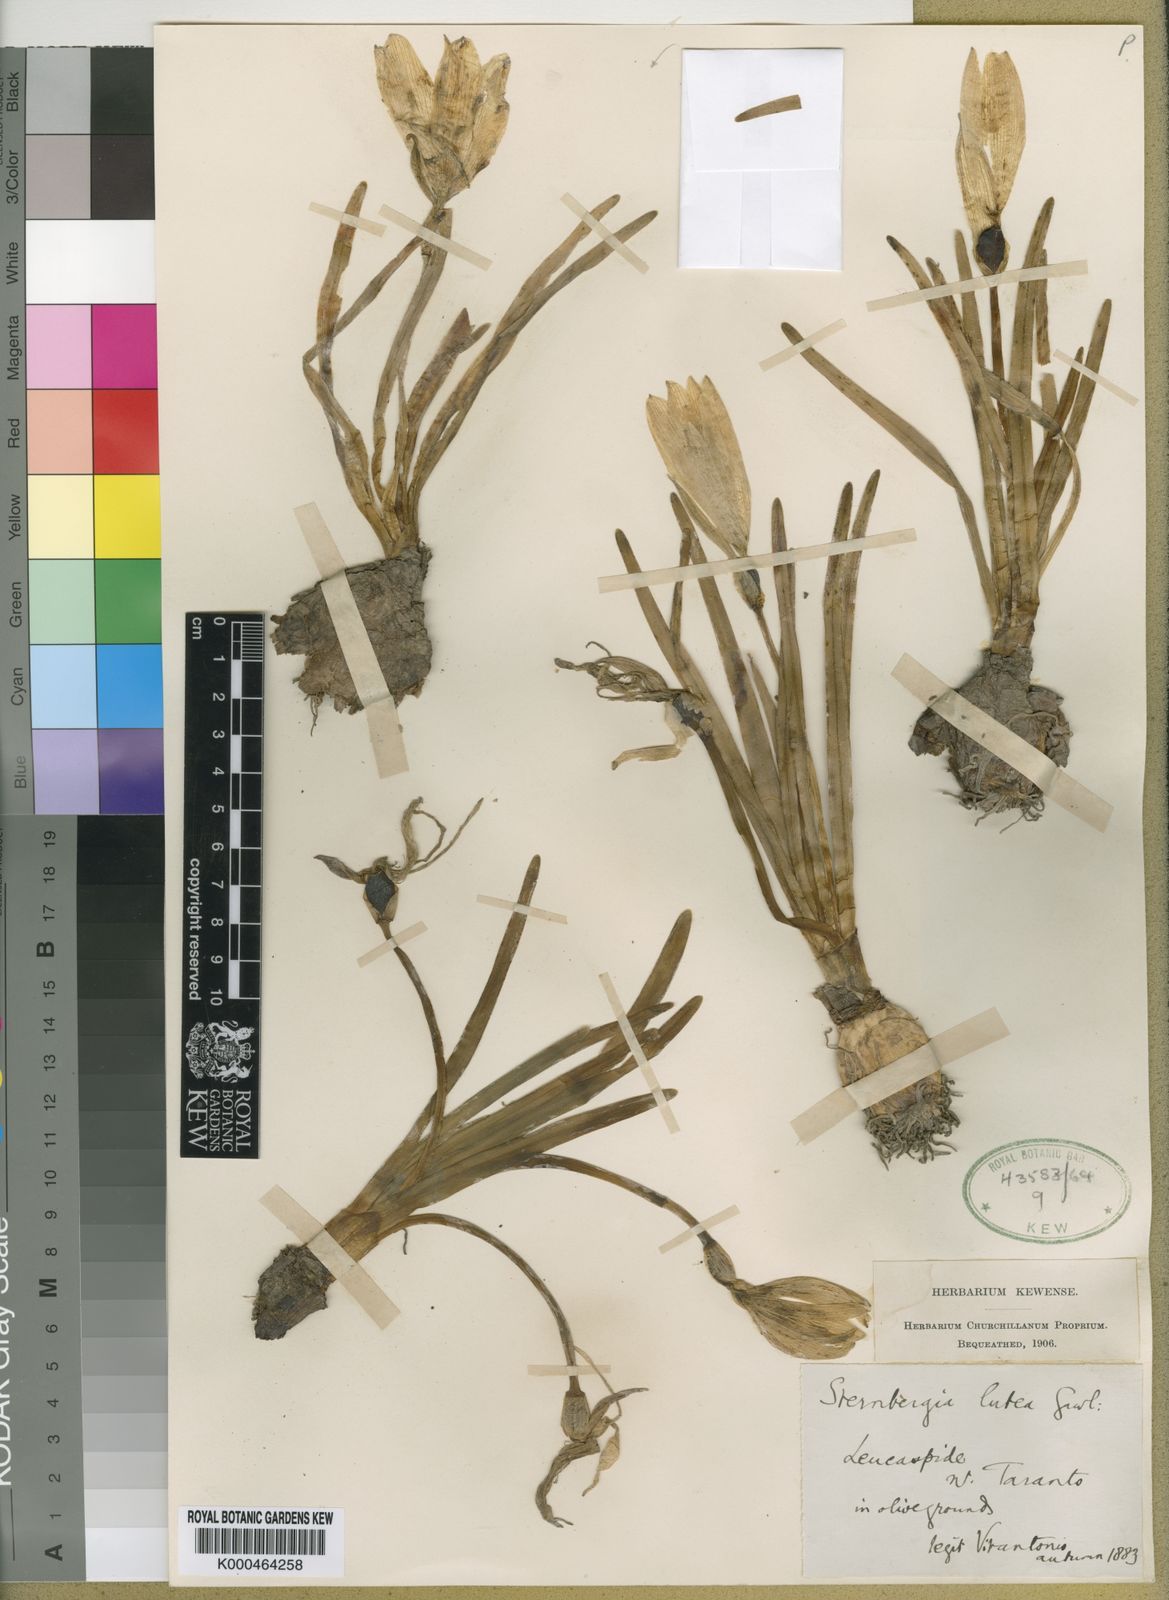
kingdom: Plantae
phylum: Tracheophyta
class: Liliopsida
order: Asparagales
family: Amaryllidaceae
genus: Sternbergia
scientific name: Sternbergia
